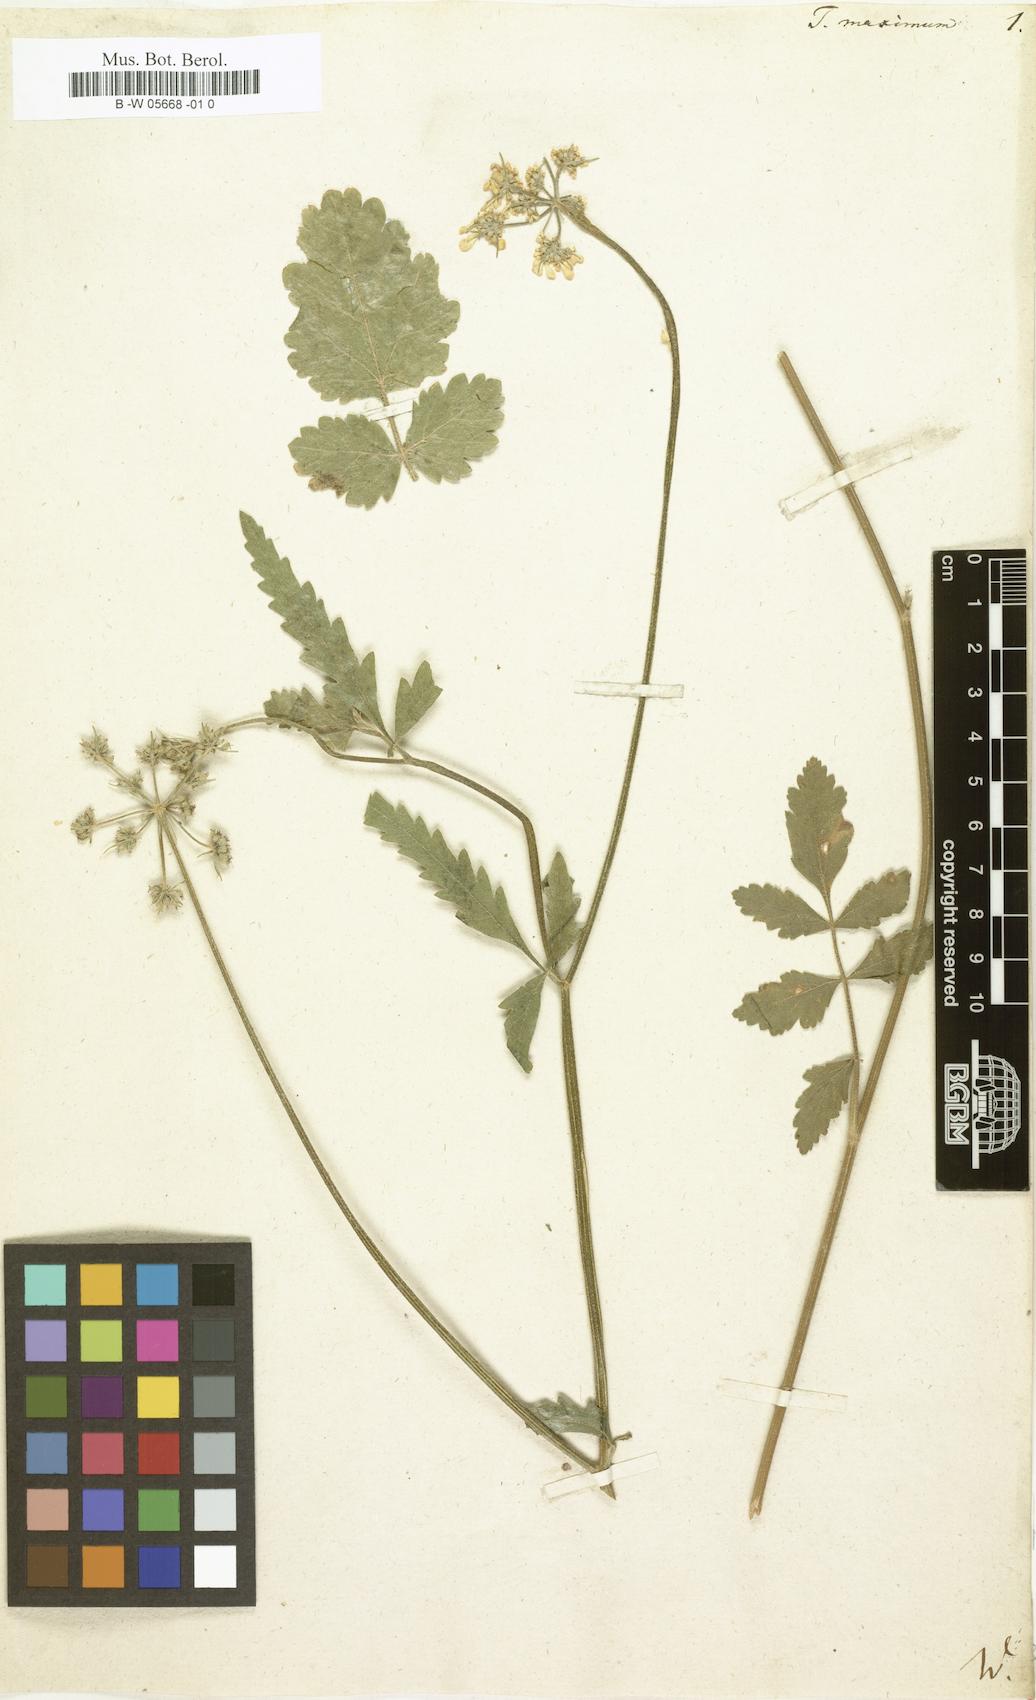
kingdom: Plantae
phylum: Tracheophyta
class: Magnoliopsida
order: Apiales
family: Apiaceae
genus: Tordylium
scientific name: Tordylium maximum
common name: Hartwort
